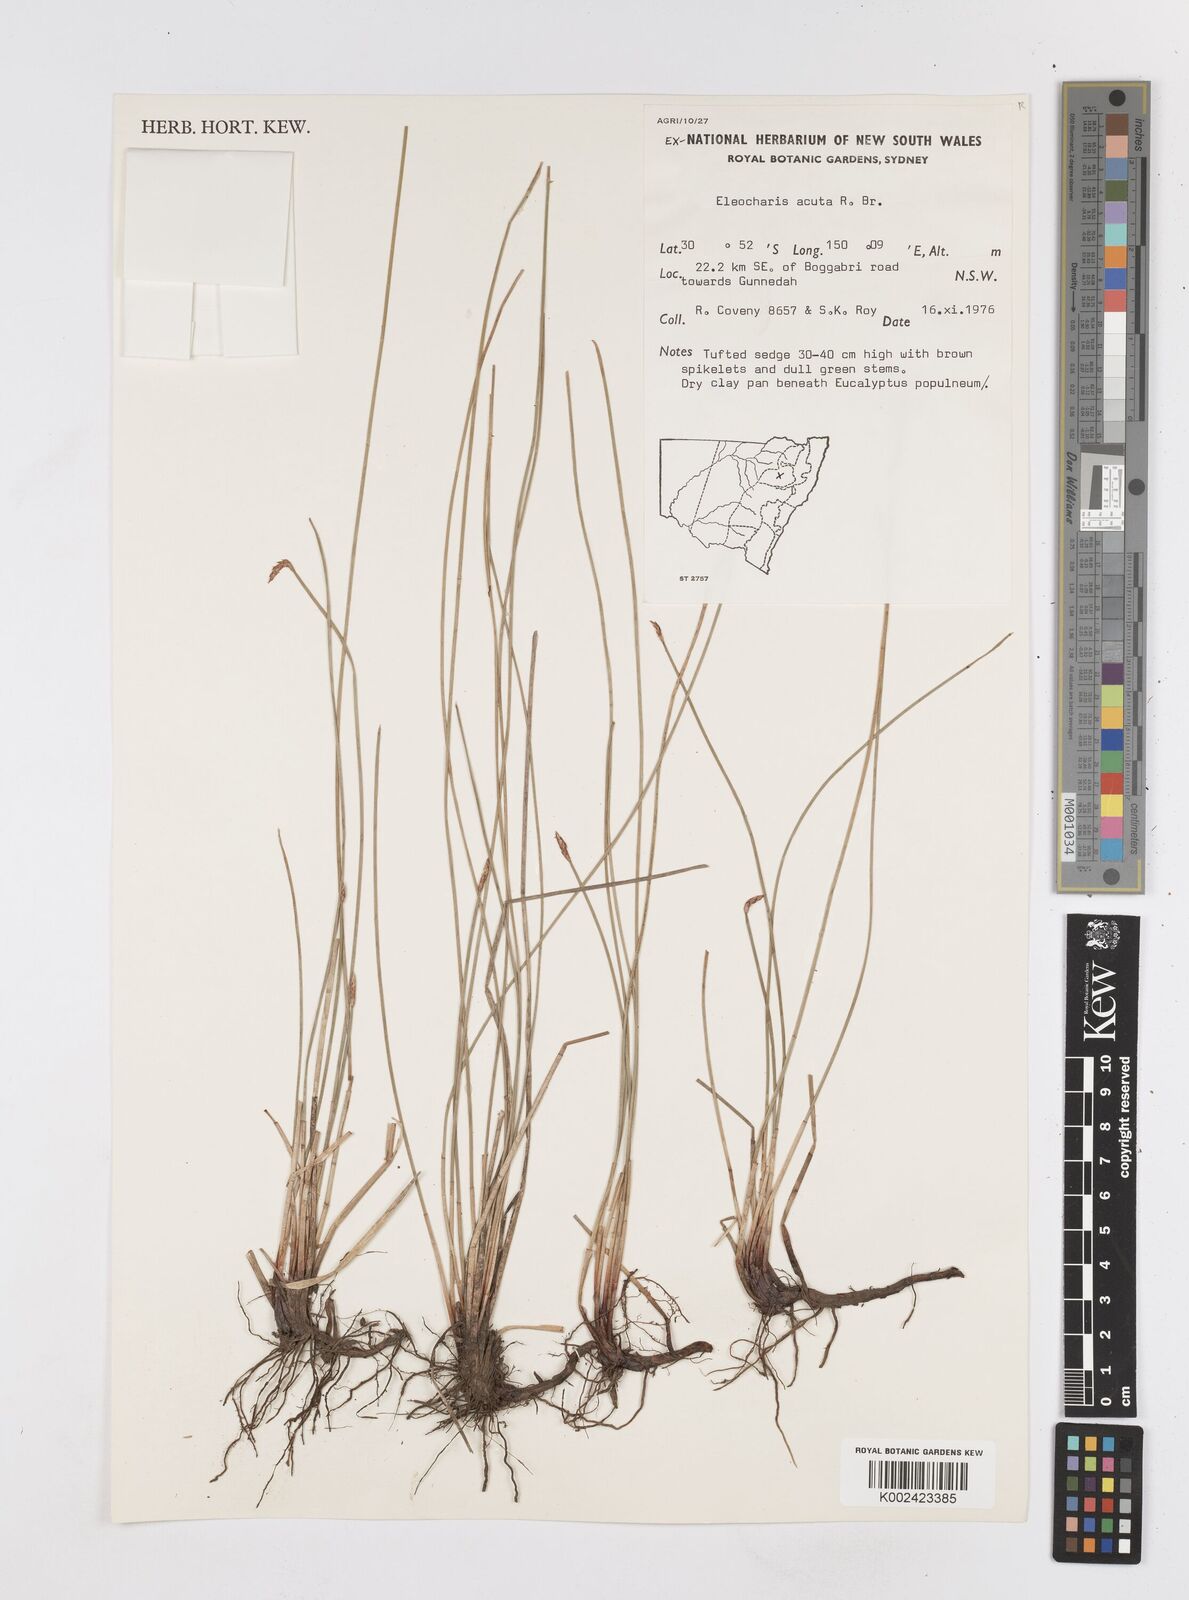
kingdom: Plantae
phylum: Tracheophyta
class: Liliopsida
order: Poales
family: Cyperaceae
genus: Eleocharis
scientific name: Eleocharis acuta
